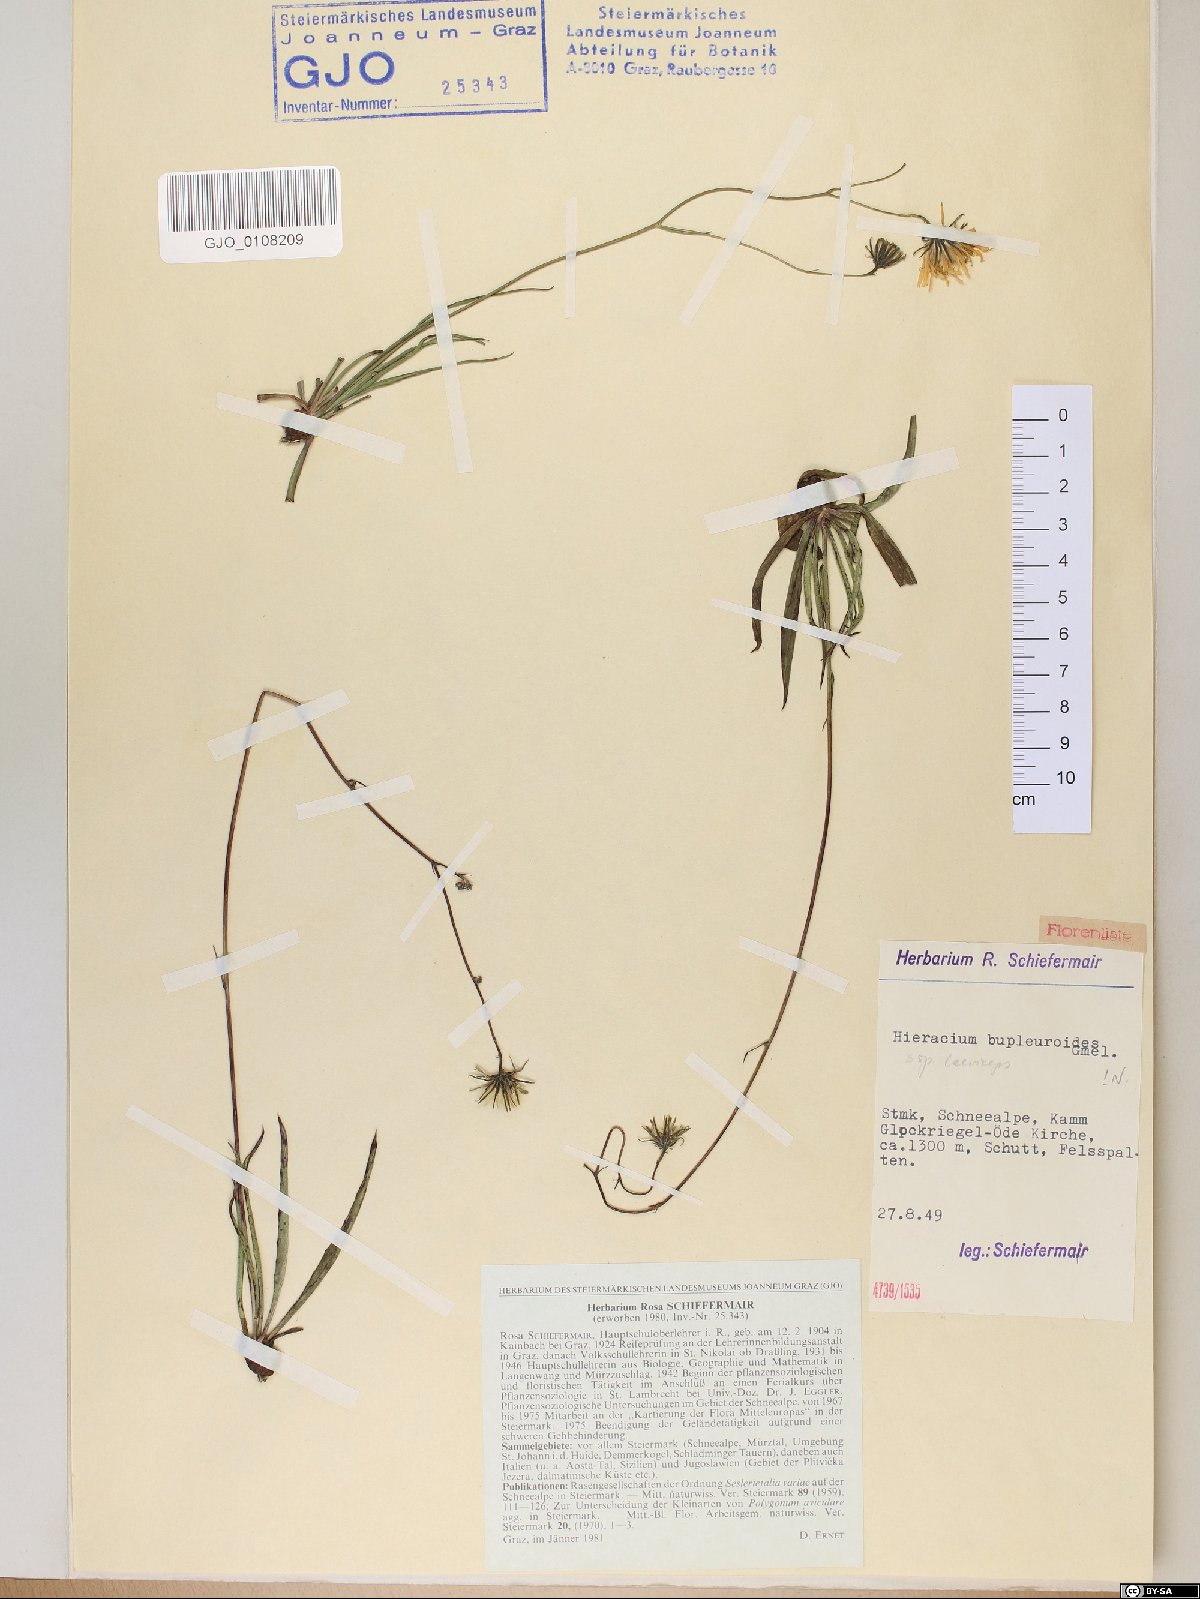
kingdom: Plantae
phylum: Tracheophyta
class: Magnoliopsida
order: Asterales
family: Asteraceae
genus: Hieracium
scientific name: Hieracium bupleuroides
